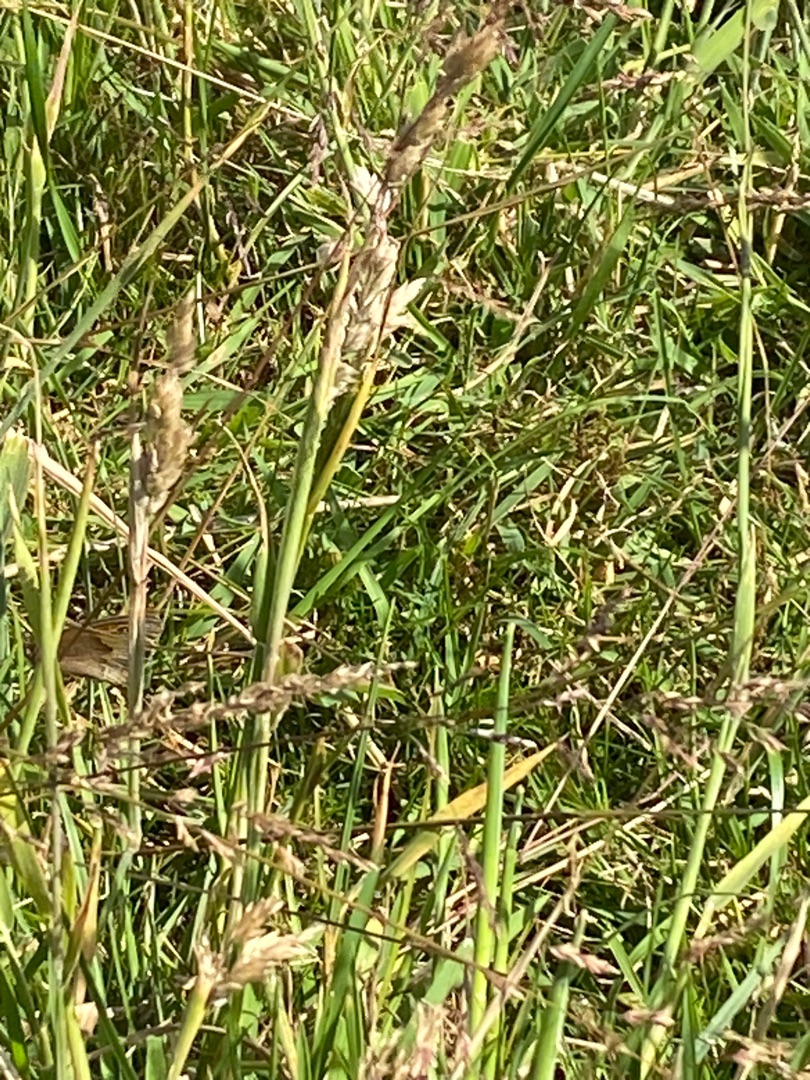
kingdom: Animalia
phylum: Arthropoda
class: Insecta
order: Lepidoptera
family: Nymphalidae
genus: Maniola
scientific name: Maniola jurtina
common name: Græsrandøje
